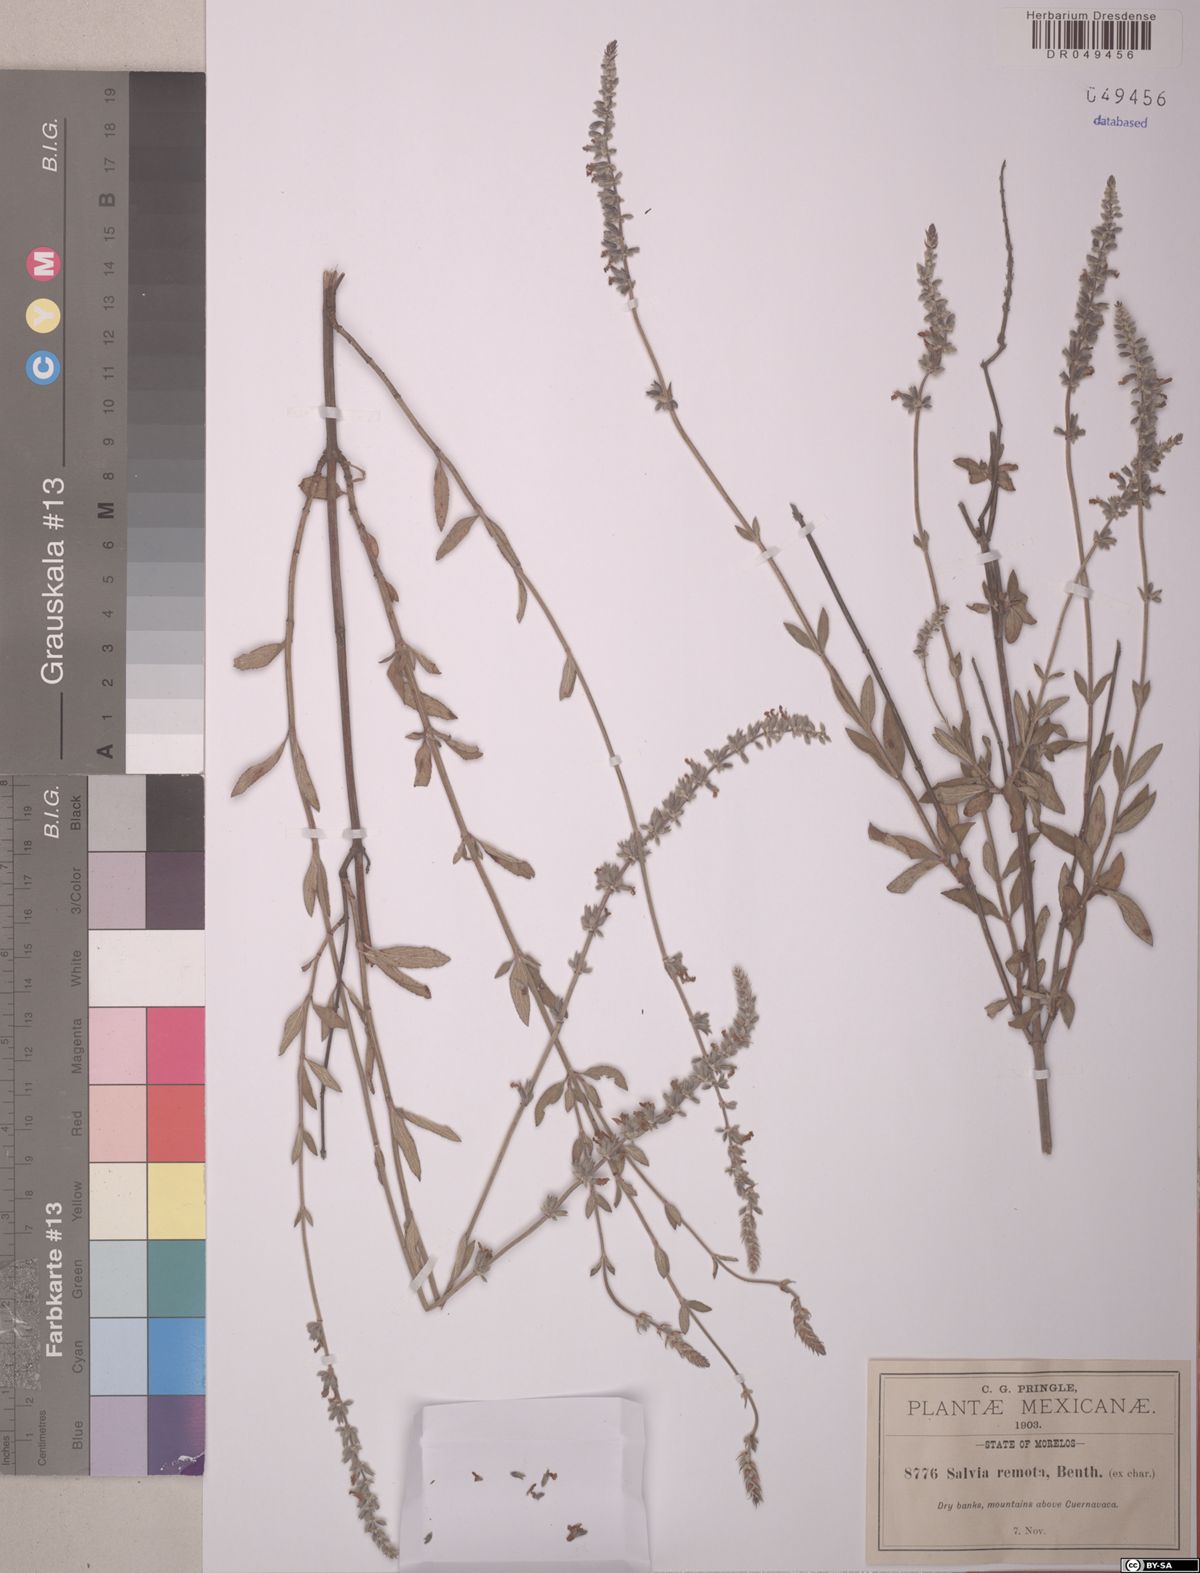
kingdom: Plantae
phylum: Tracheophyta
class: Magnoliopsida
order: Lamiales
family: Lamiaceae
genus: Salvia
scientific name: Salvia remota
